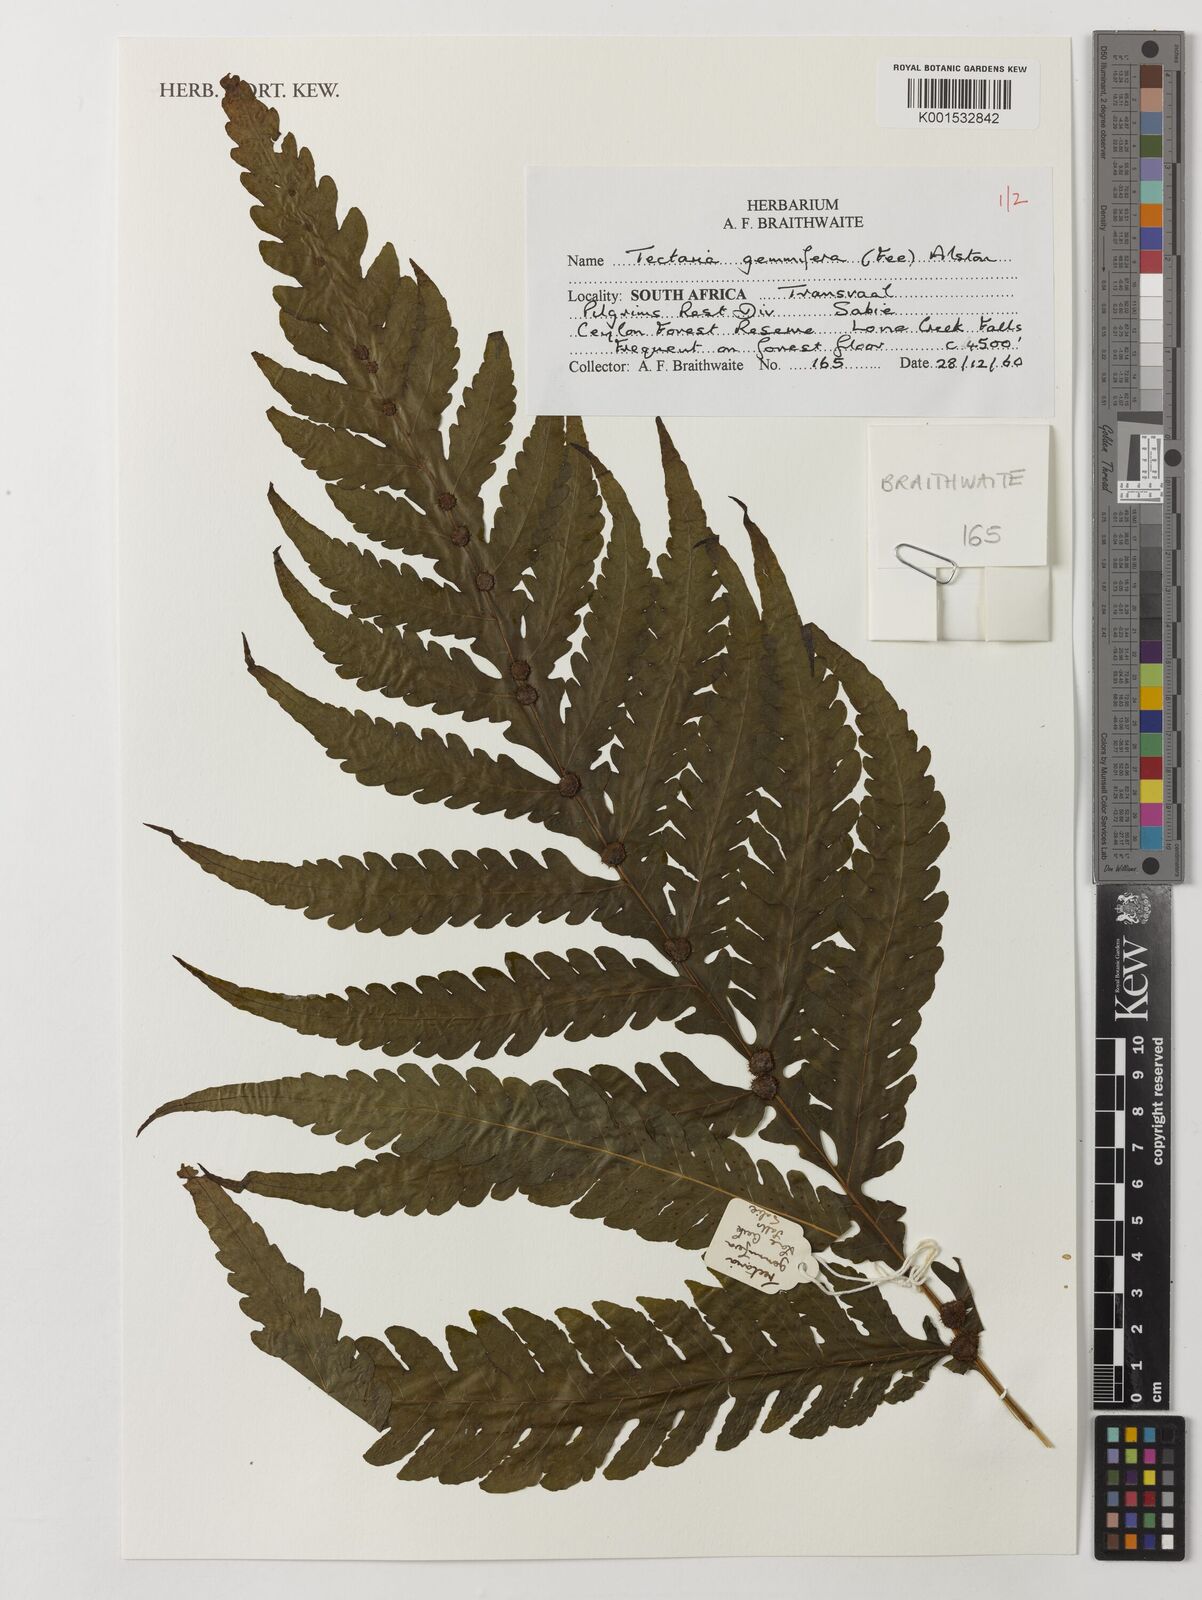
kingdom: Plantae
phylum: Tracheophyta
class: Polypodiopsida
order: Polypodiales
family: Tectariaceae
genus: Tectaria
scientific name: Tectaria gemmifera
